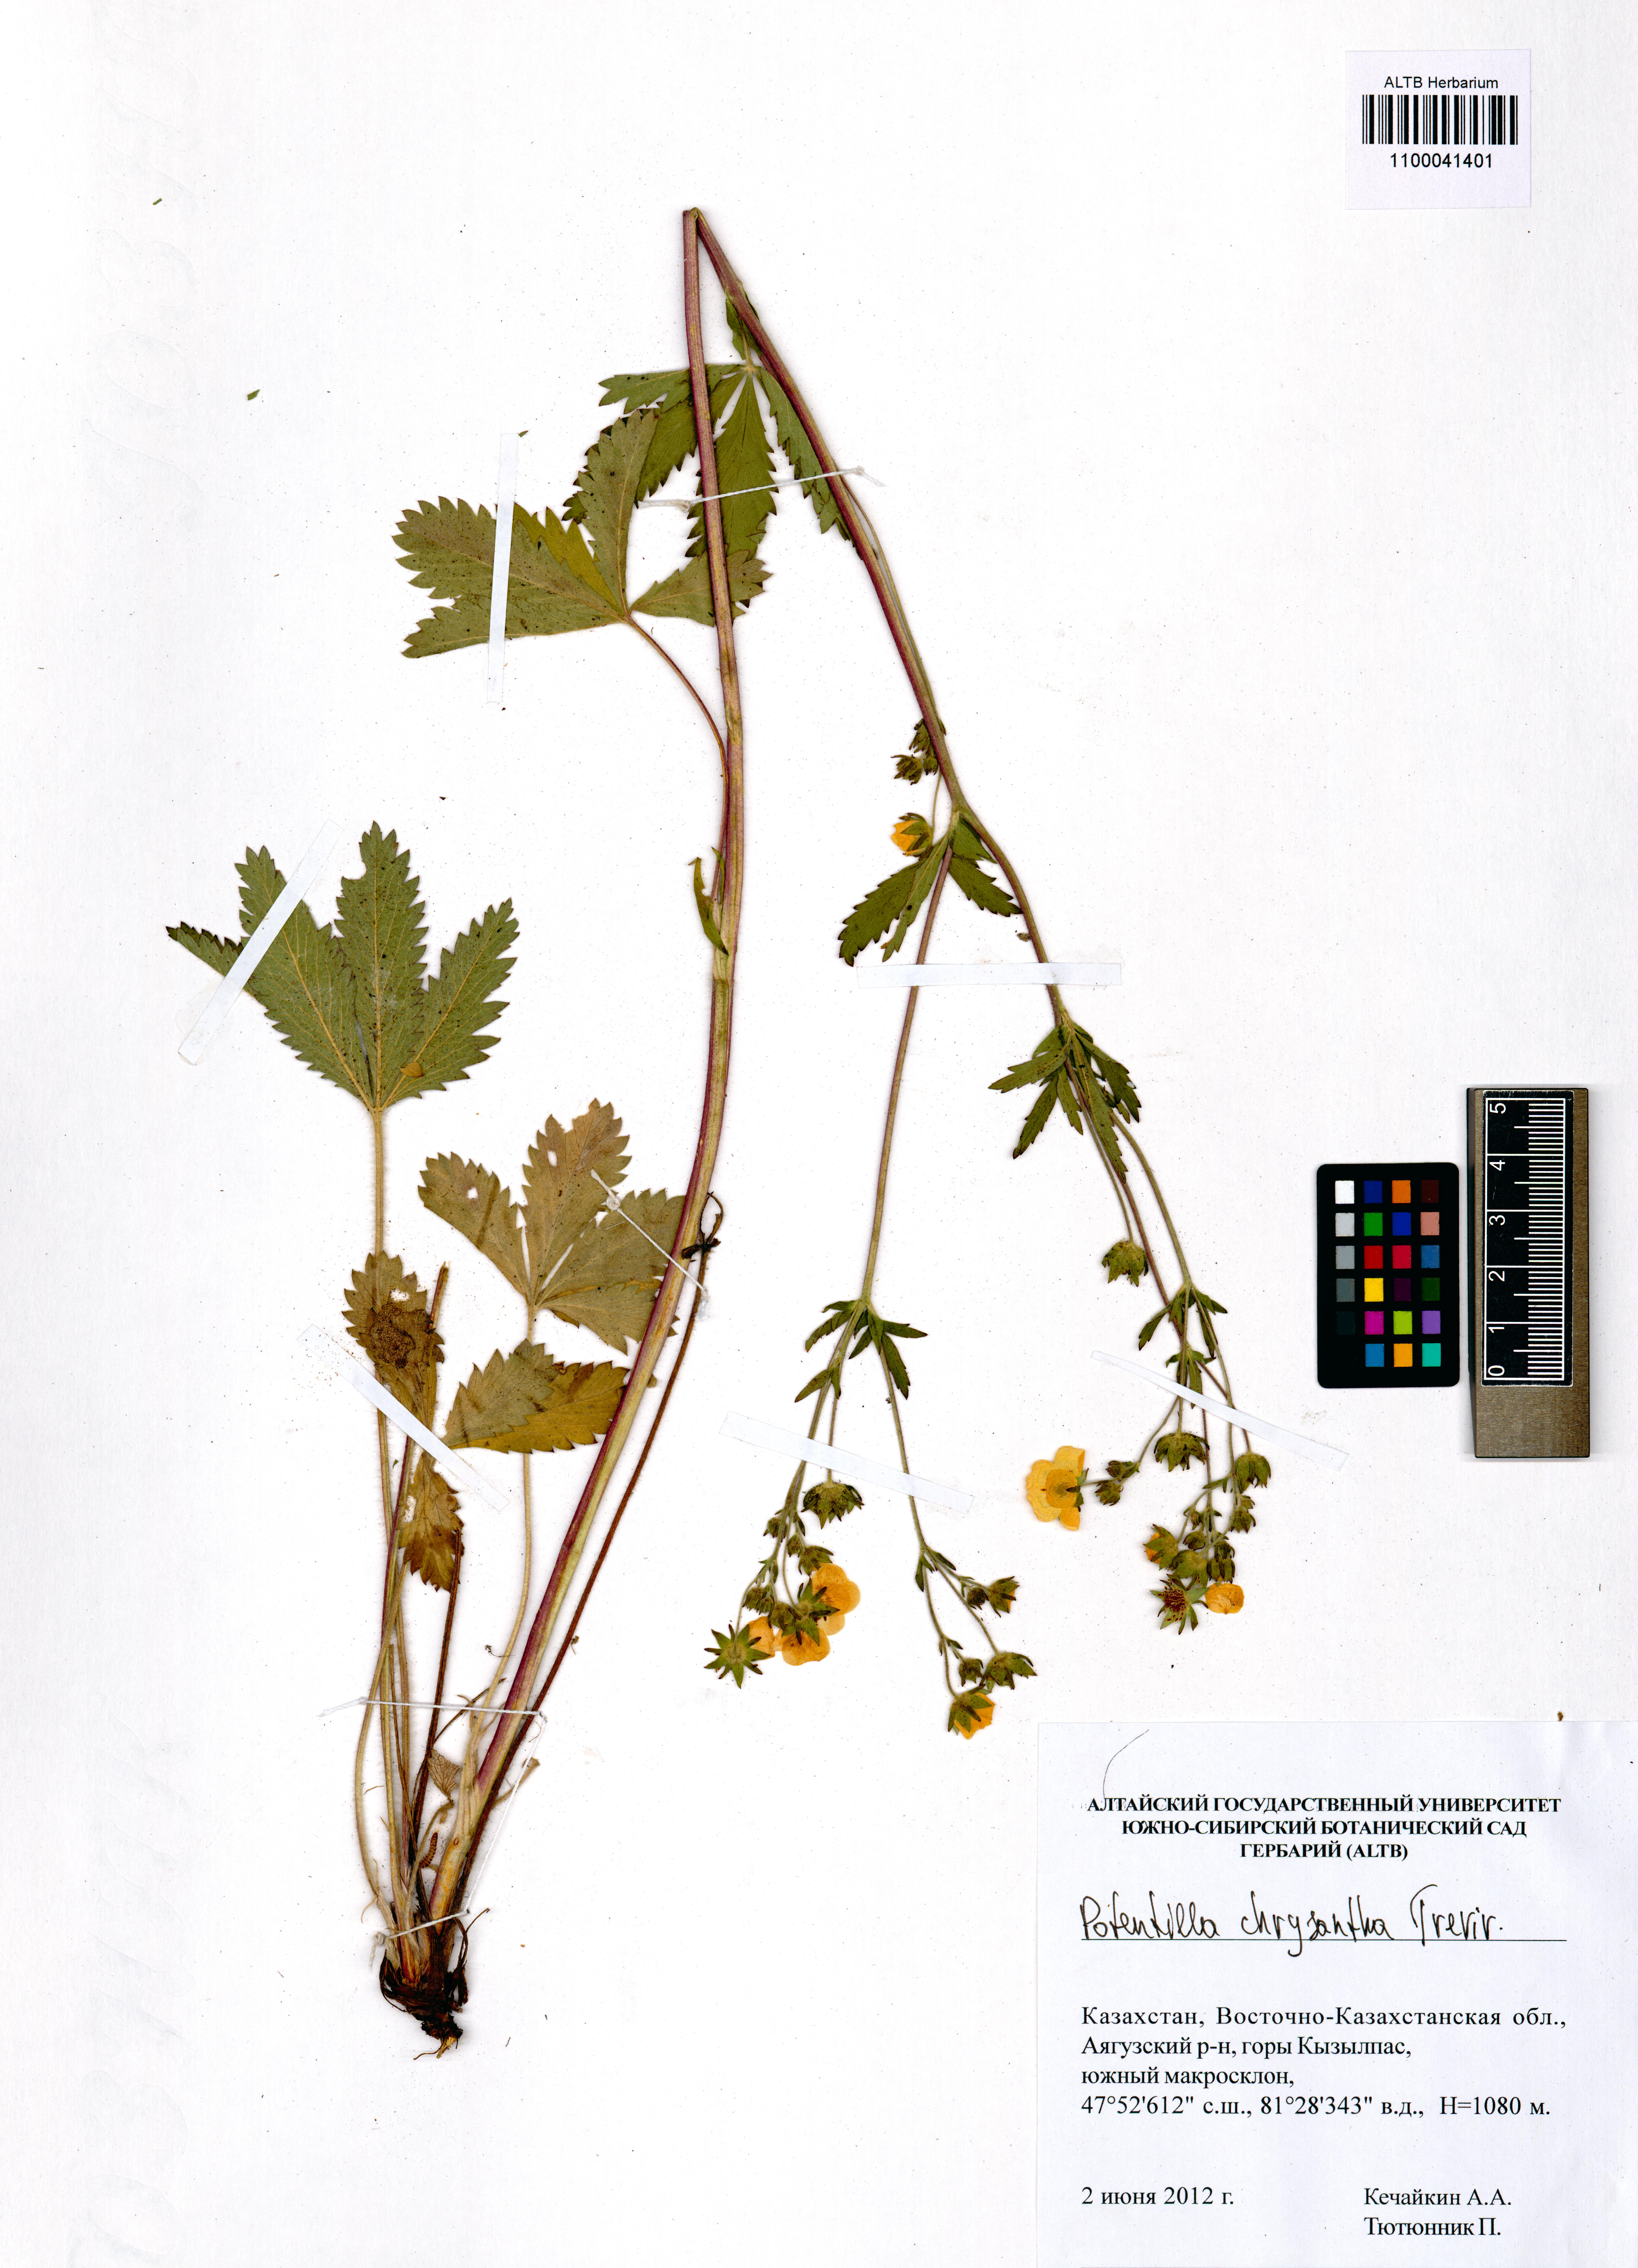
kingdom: Plantae
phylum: Tracheophyta
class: Magnoliopsida
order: Rosales
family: Rosaceae
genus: Potentilla
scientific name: Potentilla chrysantha
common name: Thuringian cinquefoil
